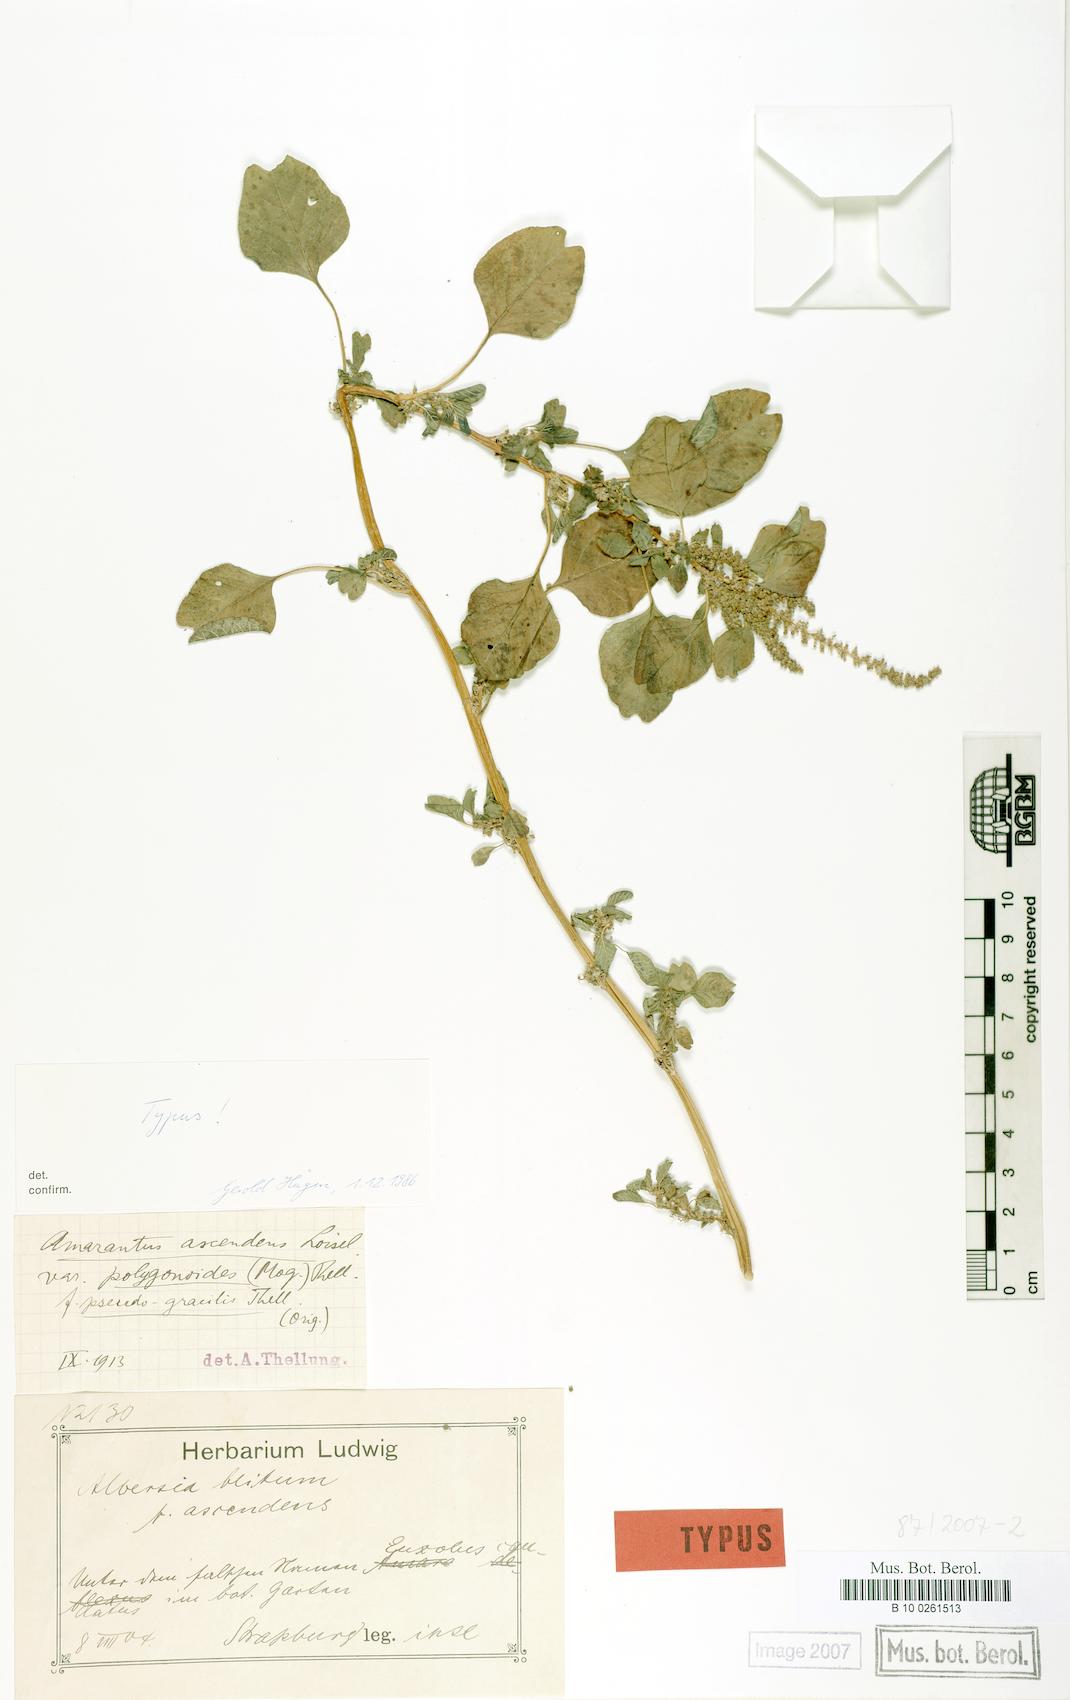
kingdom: Plantae
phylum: Tracheophyta
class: Magnoliopsida
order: Caryophyllales
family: Amaranthaceae
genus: Amaranthus
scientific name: Amaranthus emarginatus
